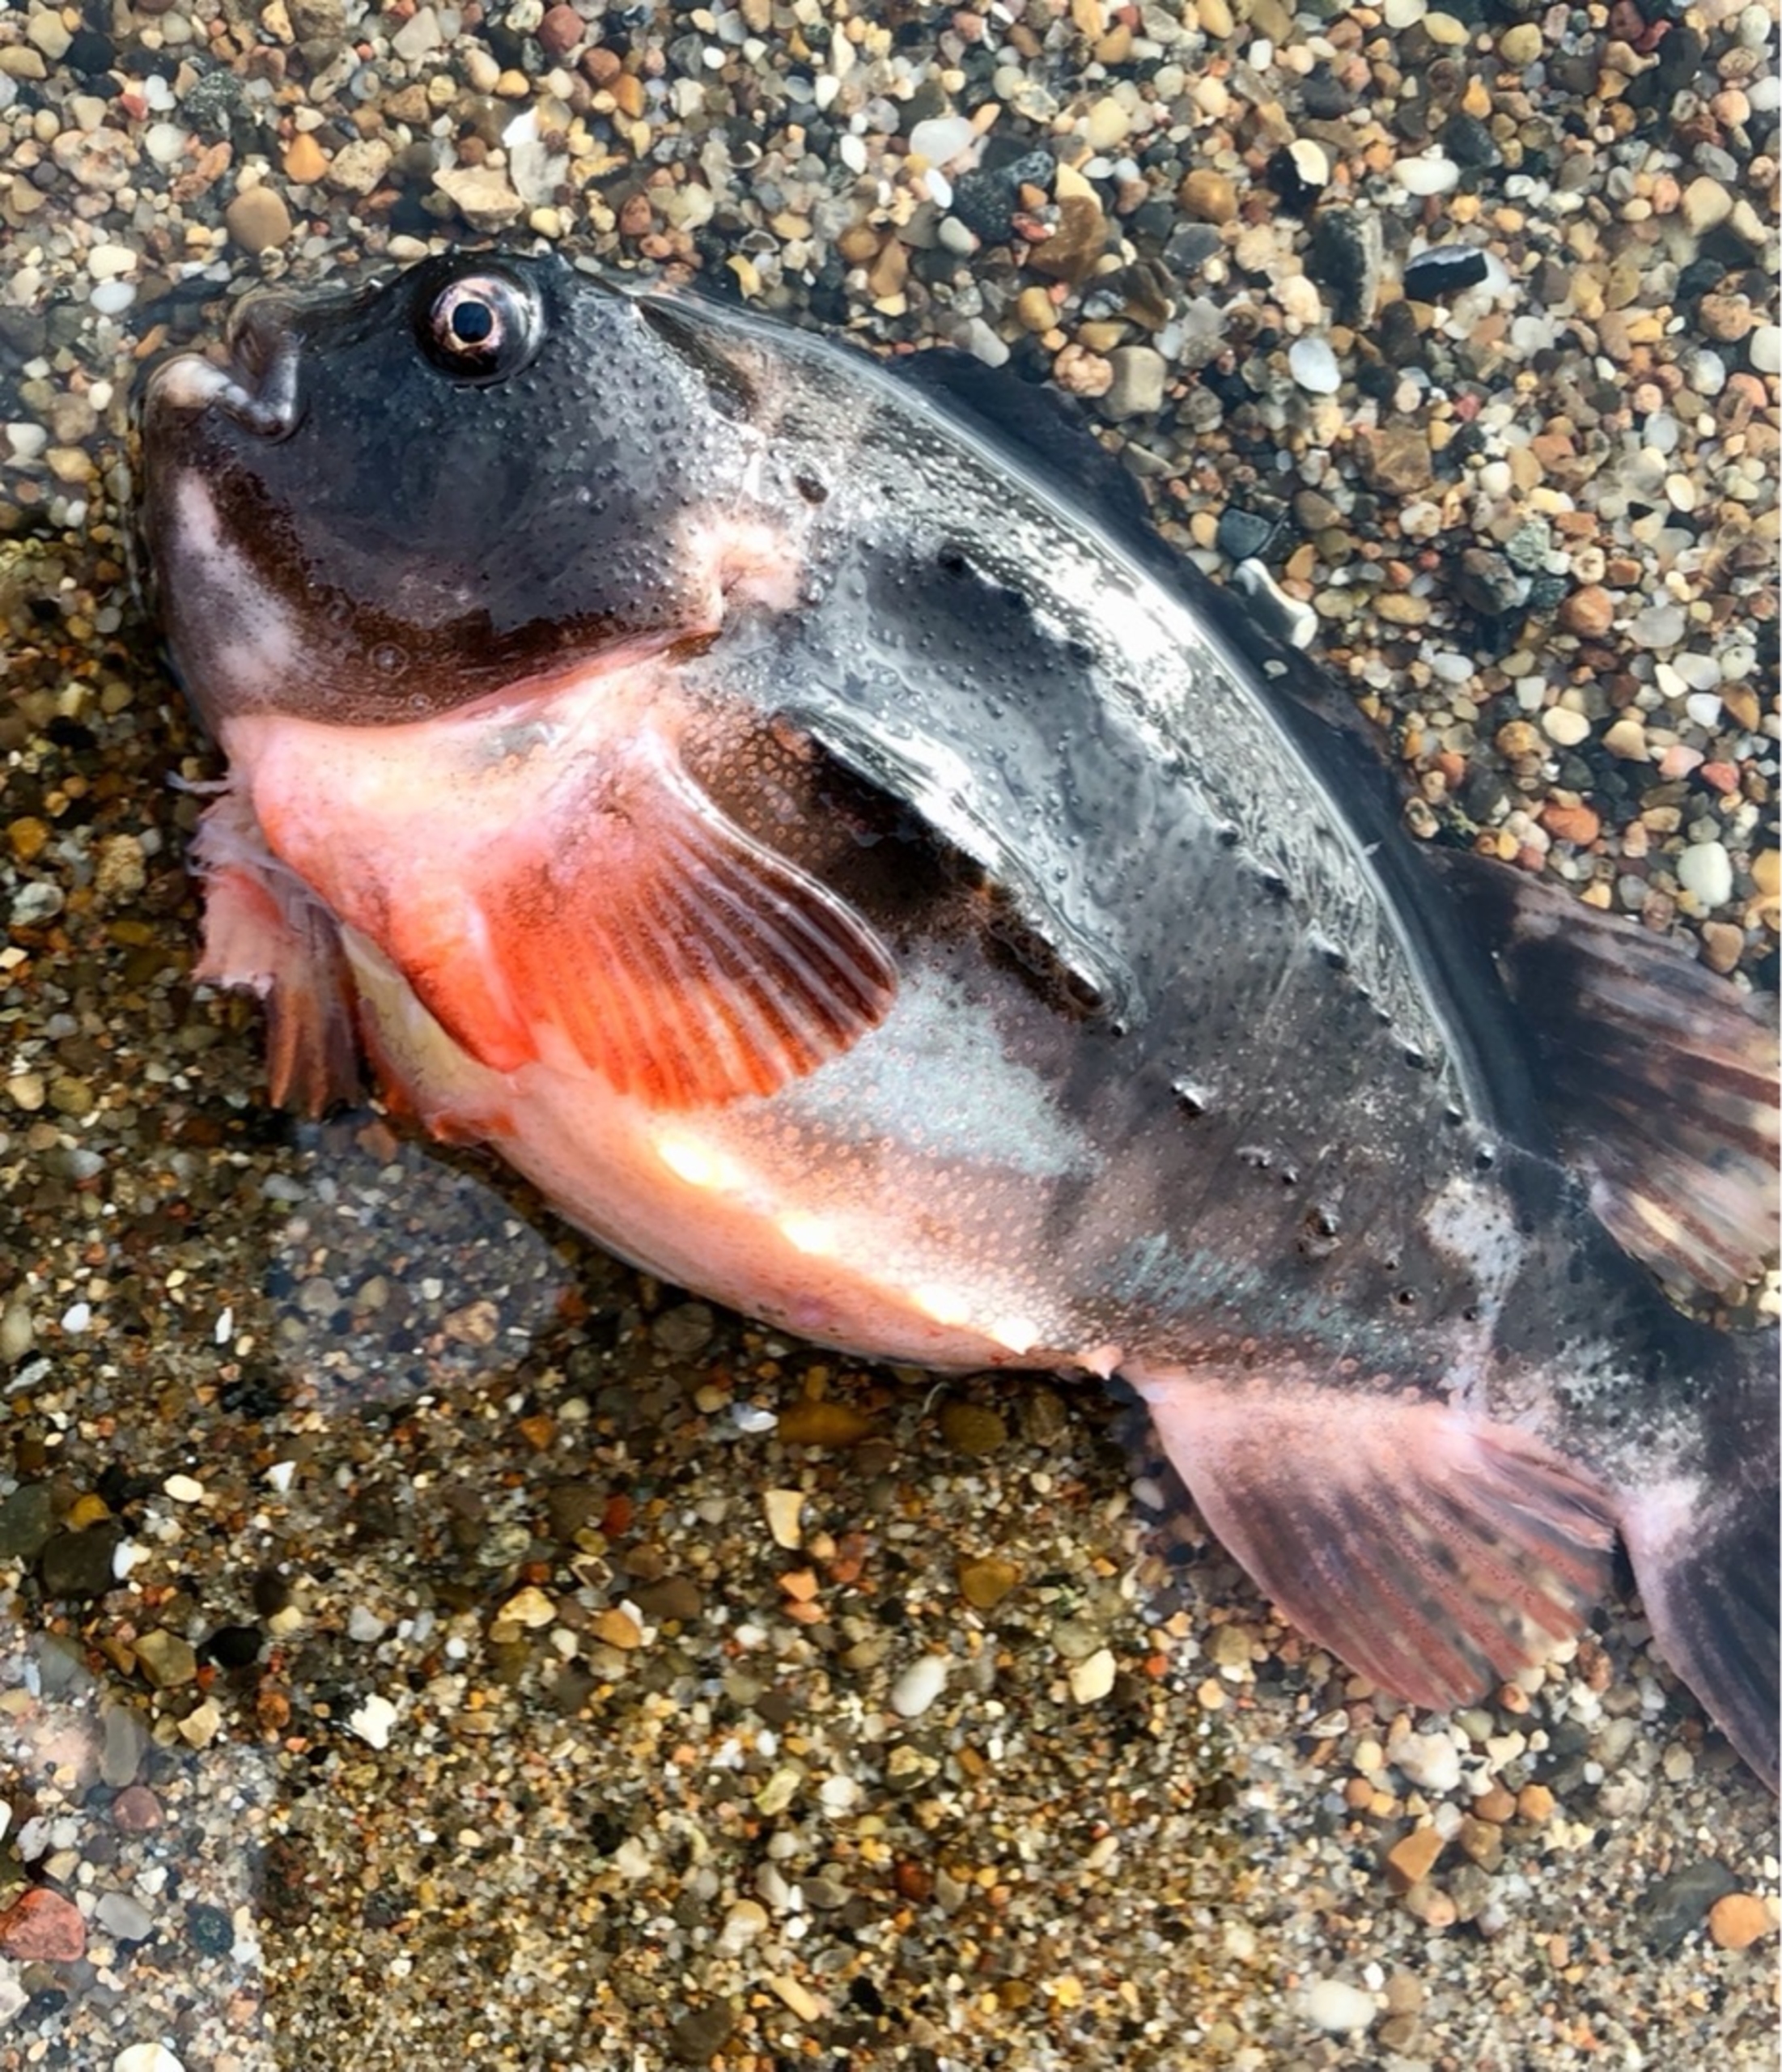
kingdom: Animalia
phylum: Chordata
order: Scorpaeniformes
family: Cyclopteridae
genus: Cyclopterus
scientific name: Cyclopterus lumpus
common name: Stenbider
